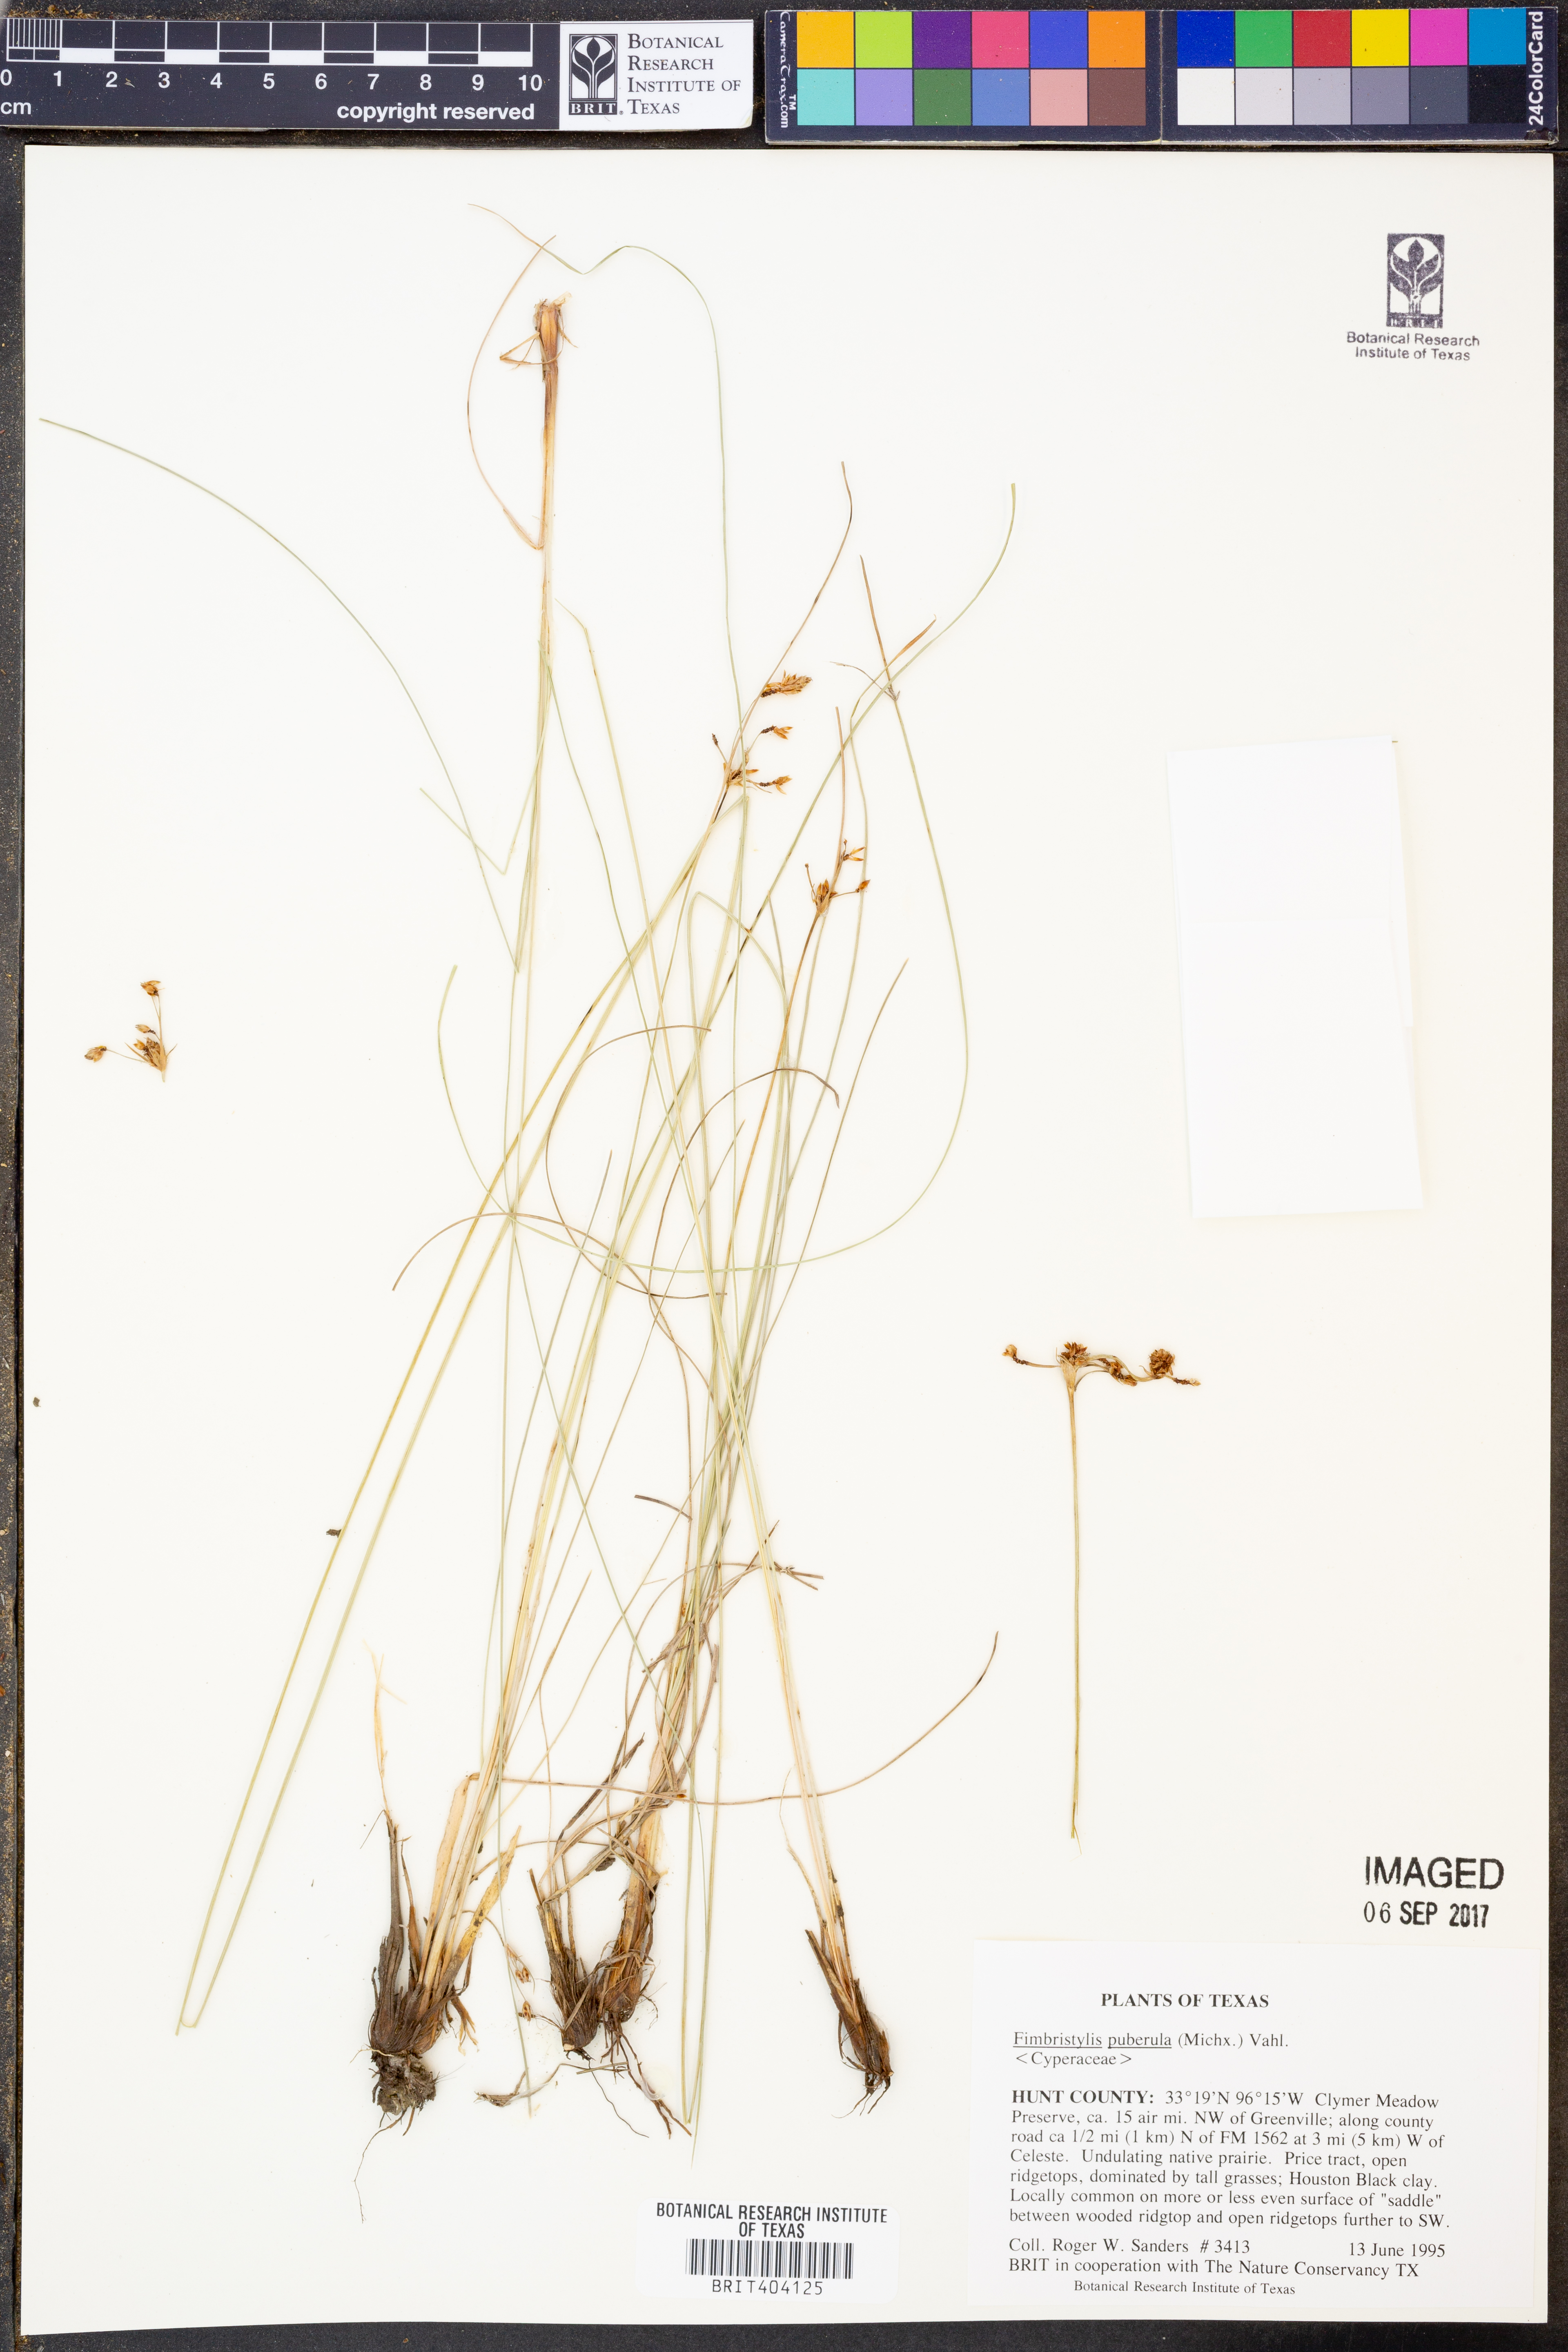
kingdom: Plantae
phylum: Tracheophyta
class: Liliopsida
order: Poales
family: Cyperaceae
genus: Fimbristylis
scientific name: Fimbristylis puberula
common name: Hairy fimbristylis
